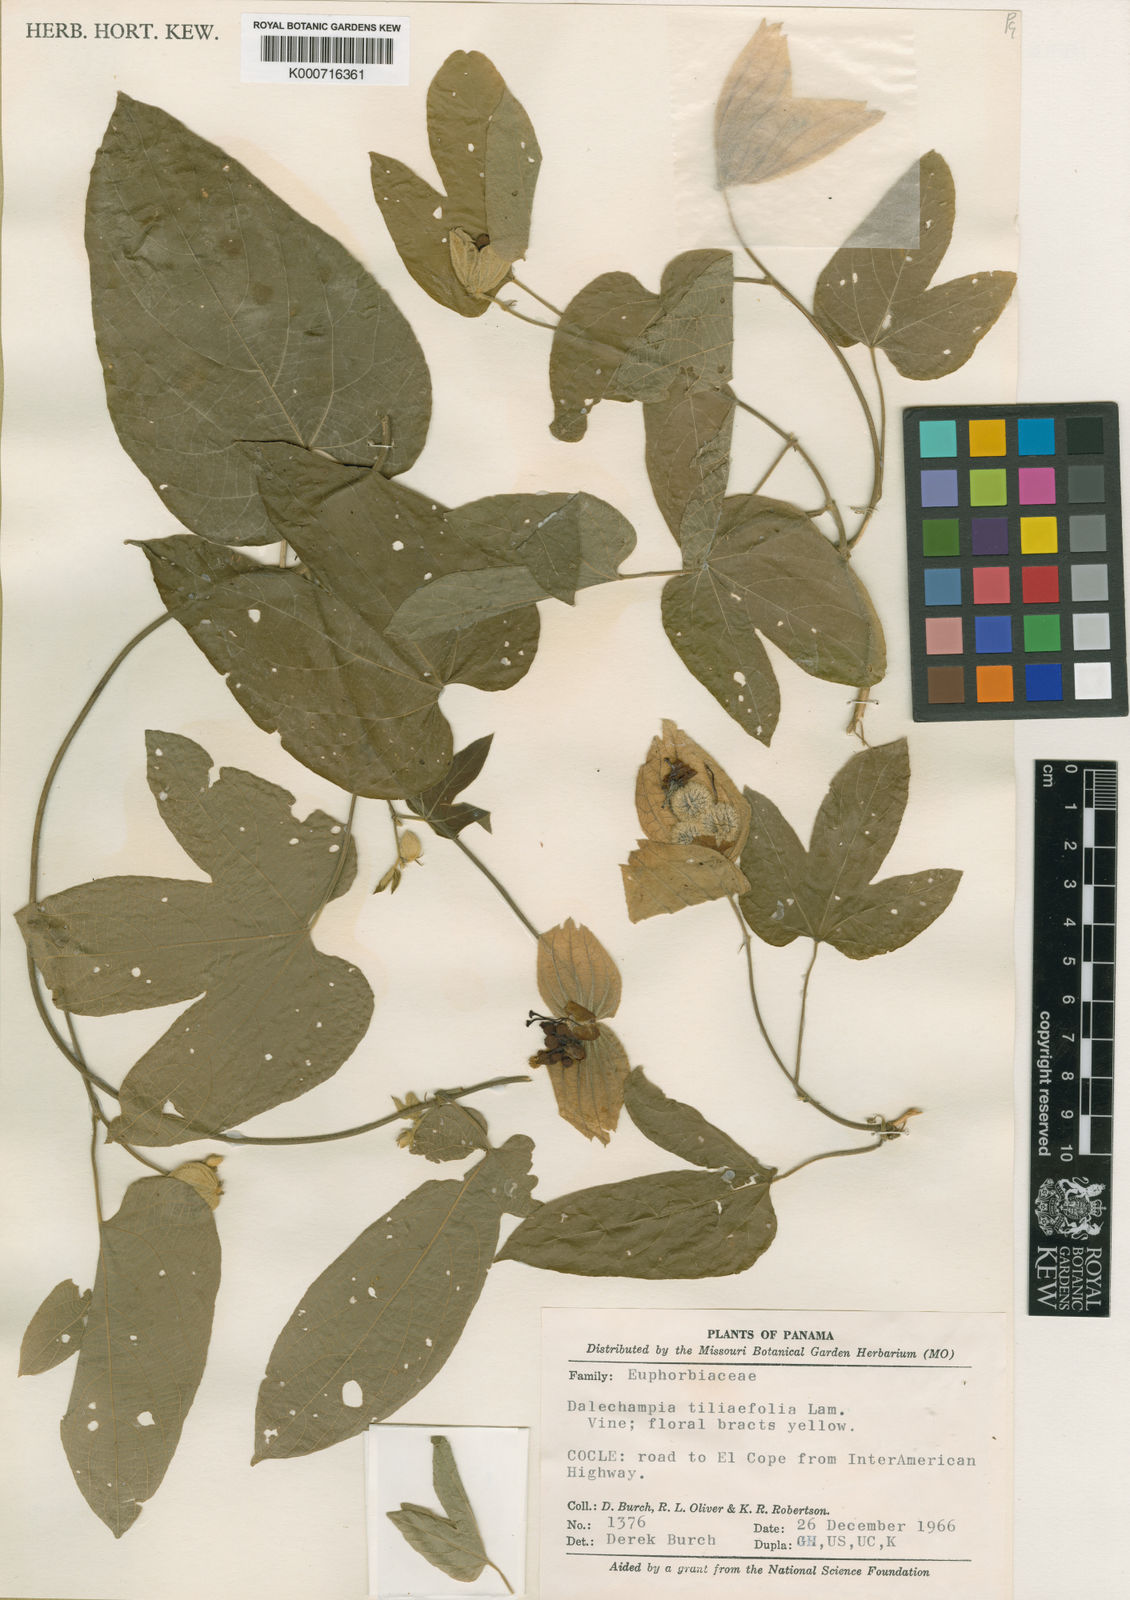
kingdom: Plantae
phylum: Tracheophyta
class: Magnoliopsida
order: Malpighiales
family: Euphorbiaceae
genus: Dalechampia
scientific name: Dalechampia tiliifolia
